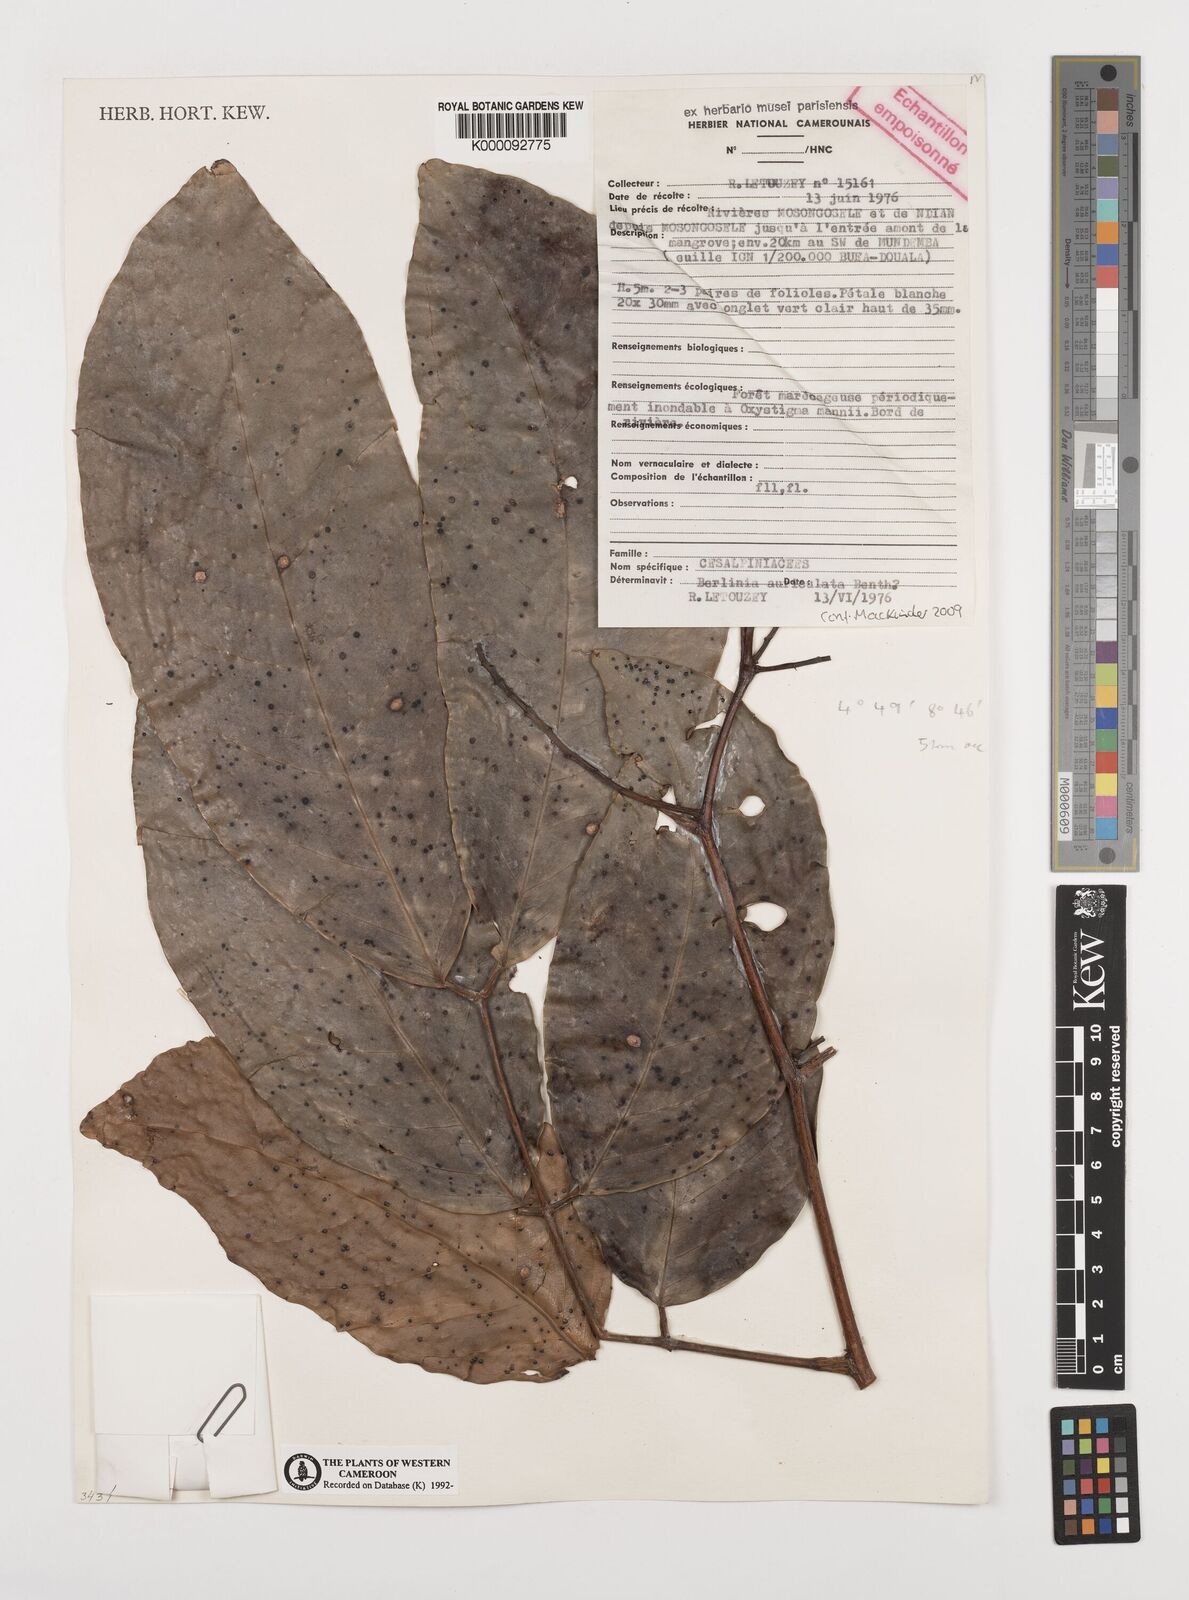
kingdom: Plantae
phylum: Tracheophyta
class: Magnoliopsida
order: Fabales
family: Fabaceae
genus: Berlinia
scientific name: Berlinia auriculata
